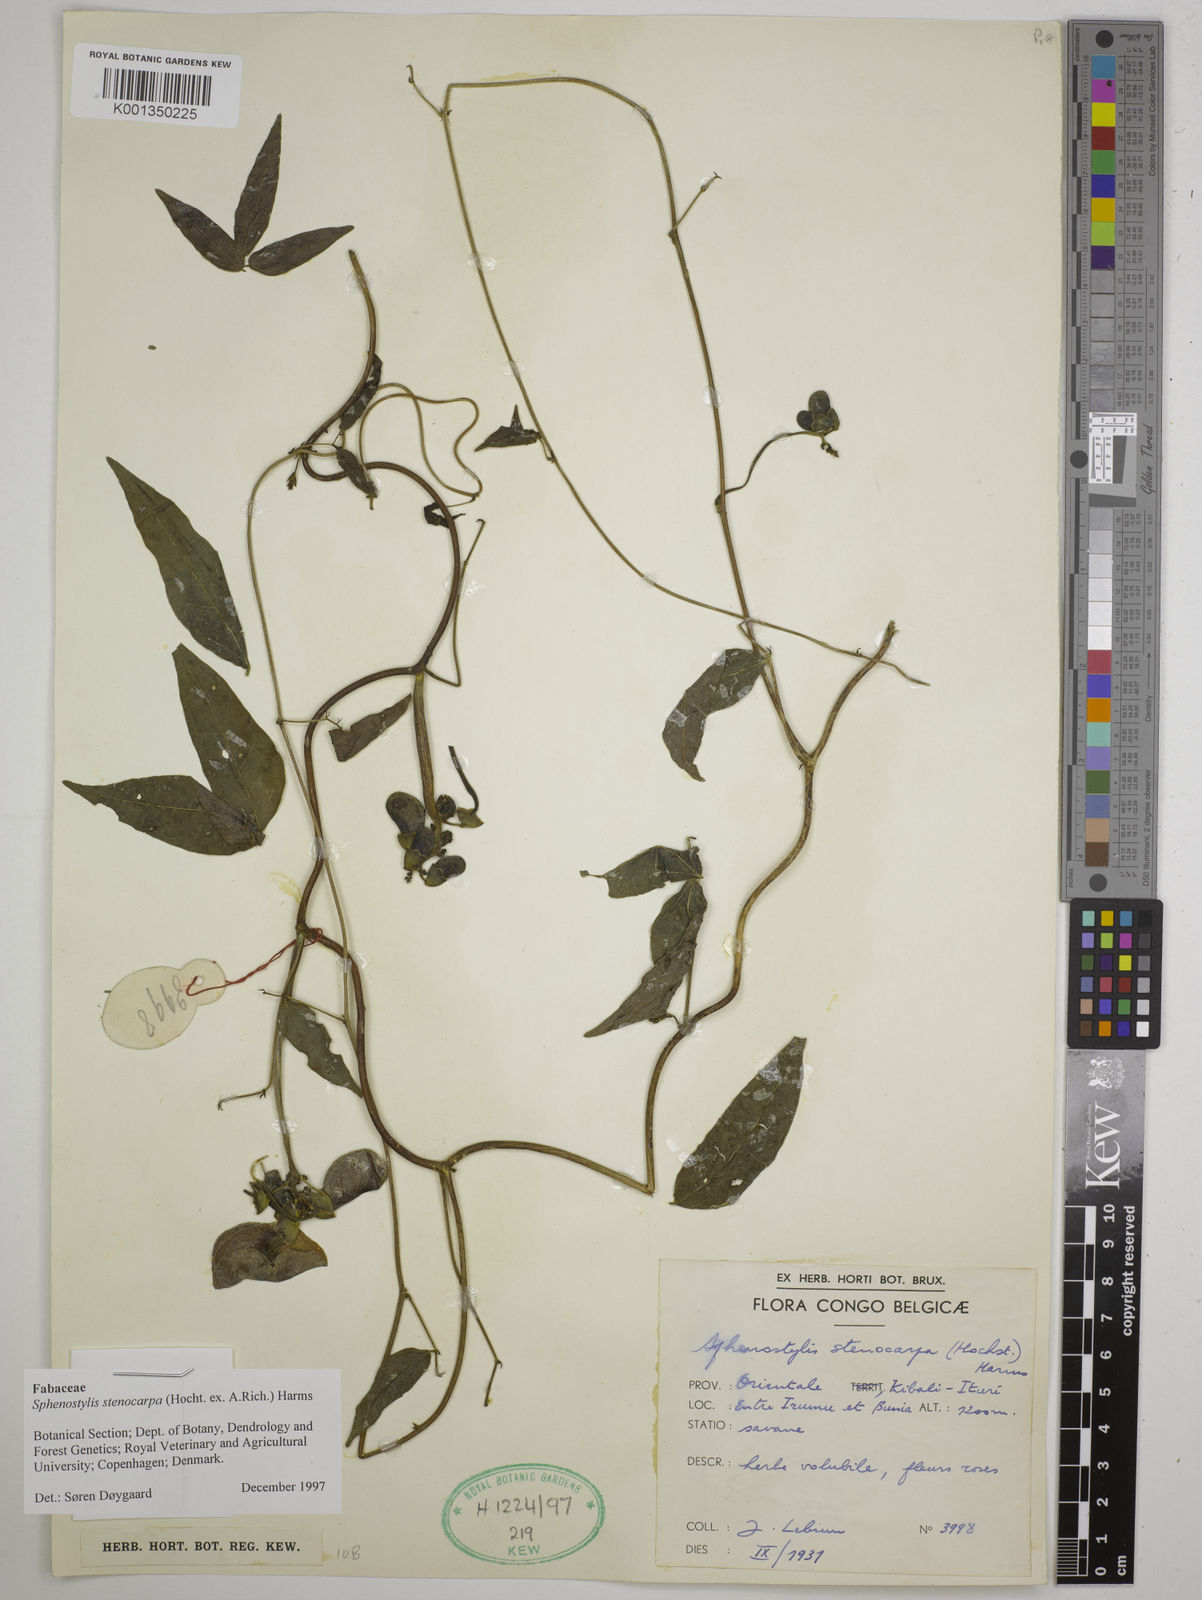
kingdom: Plantae
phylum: Tracheophyta
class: Magnoliopsida
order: Fabales
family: Fabaceae
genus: Sphenostylis
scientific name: Sphenostylis stenocarpa
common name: Yam-pea
